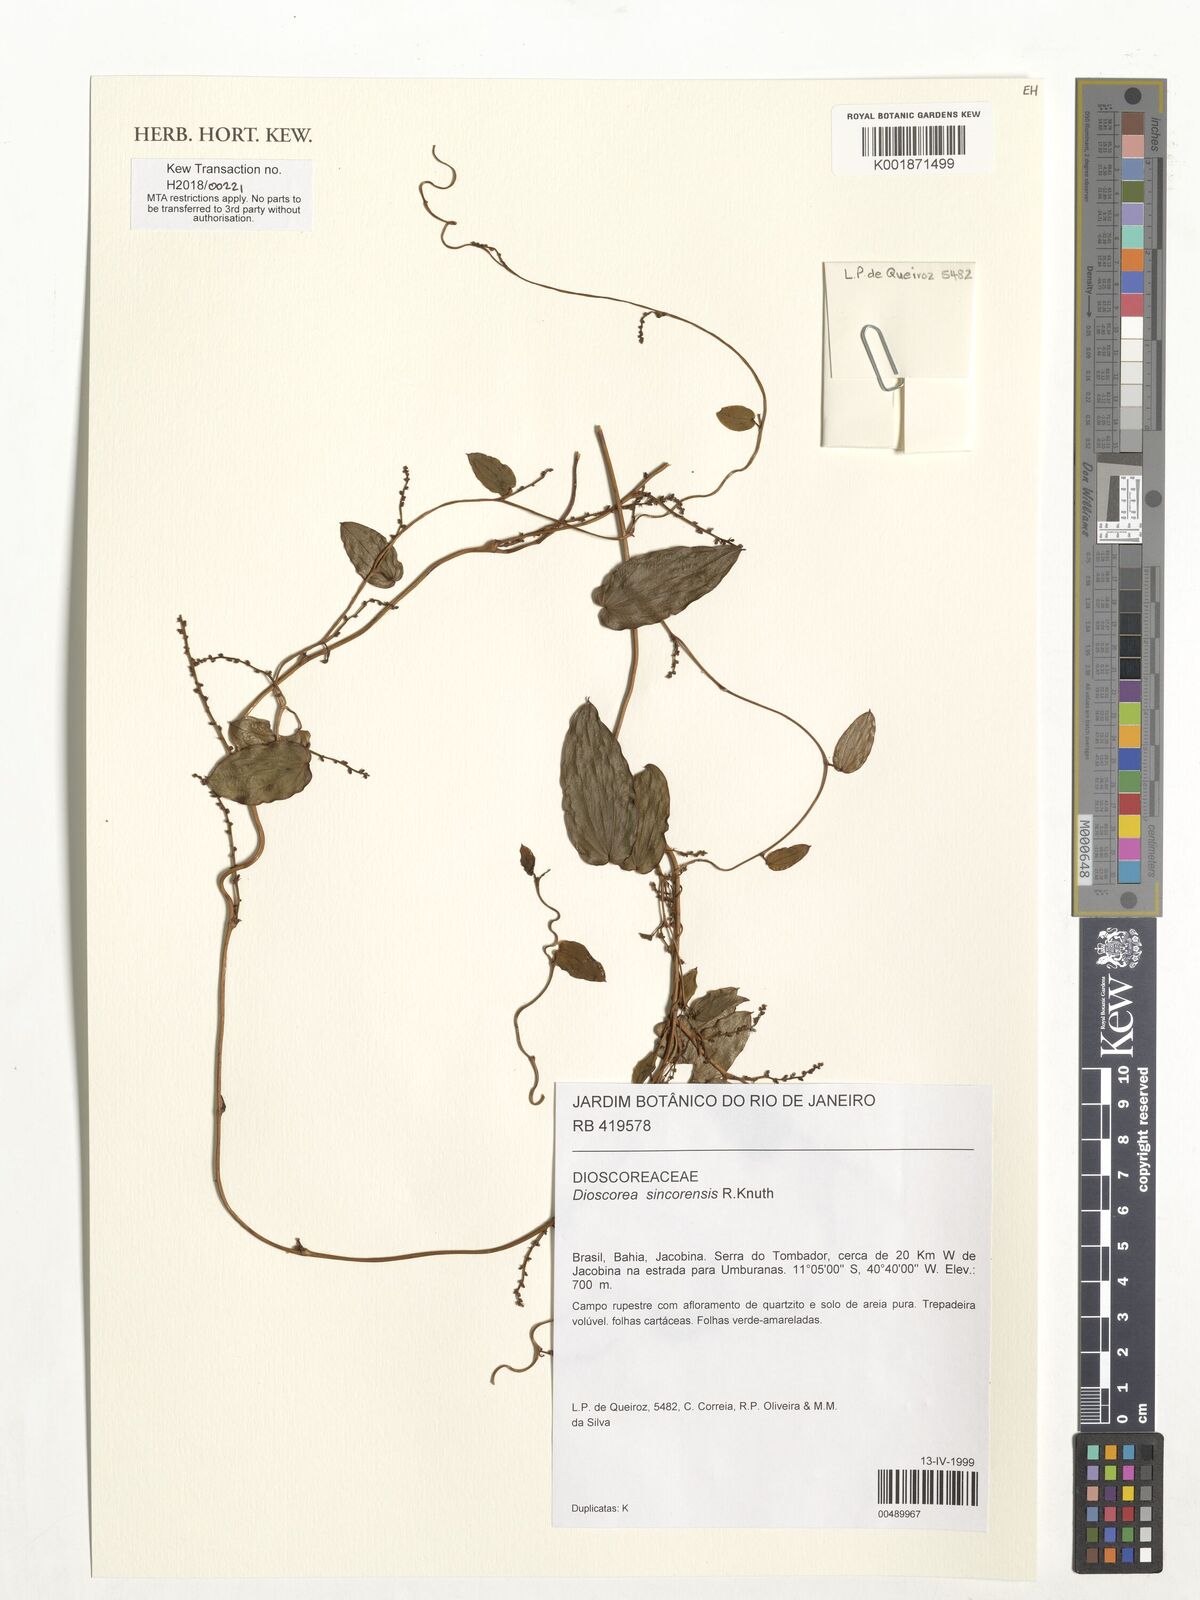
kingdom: Plantae
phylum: Tracheophyta
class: Liliopsida
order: Dioscoreales
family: Dioscoreaceae
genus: Dioscorea
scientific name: Dioscorea sincorensis
